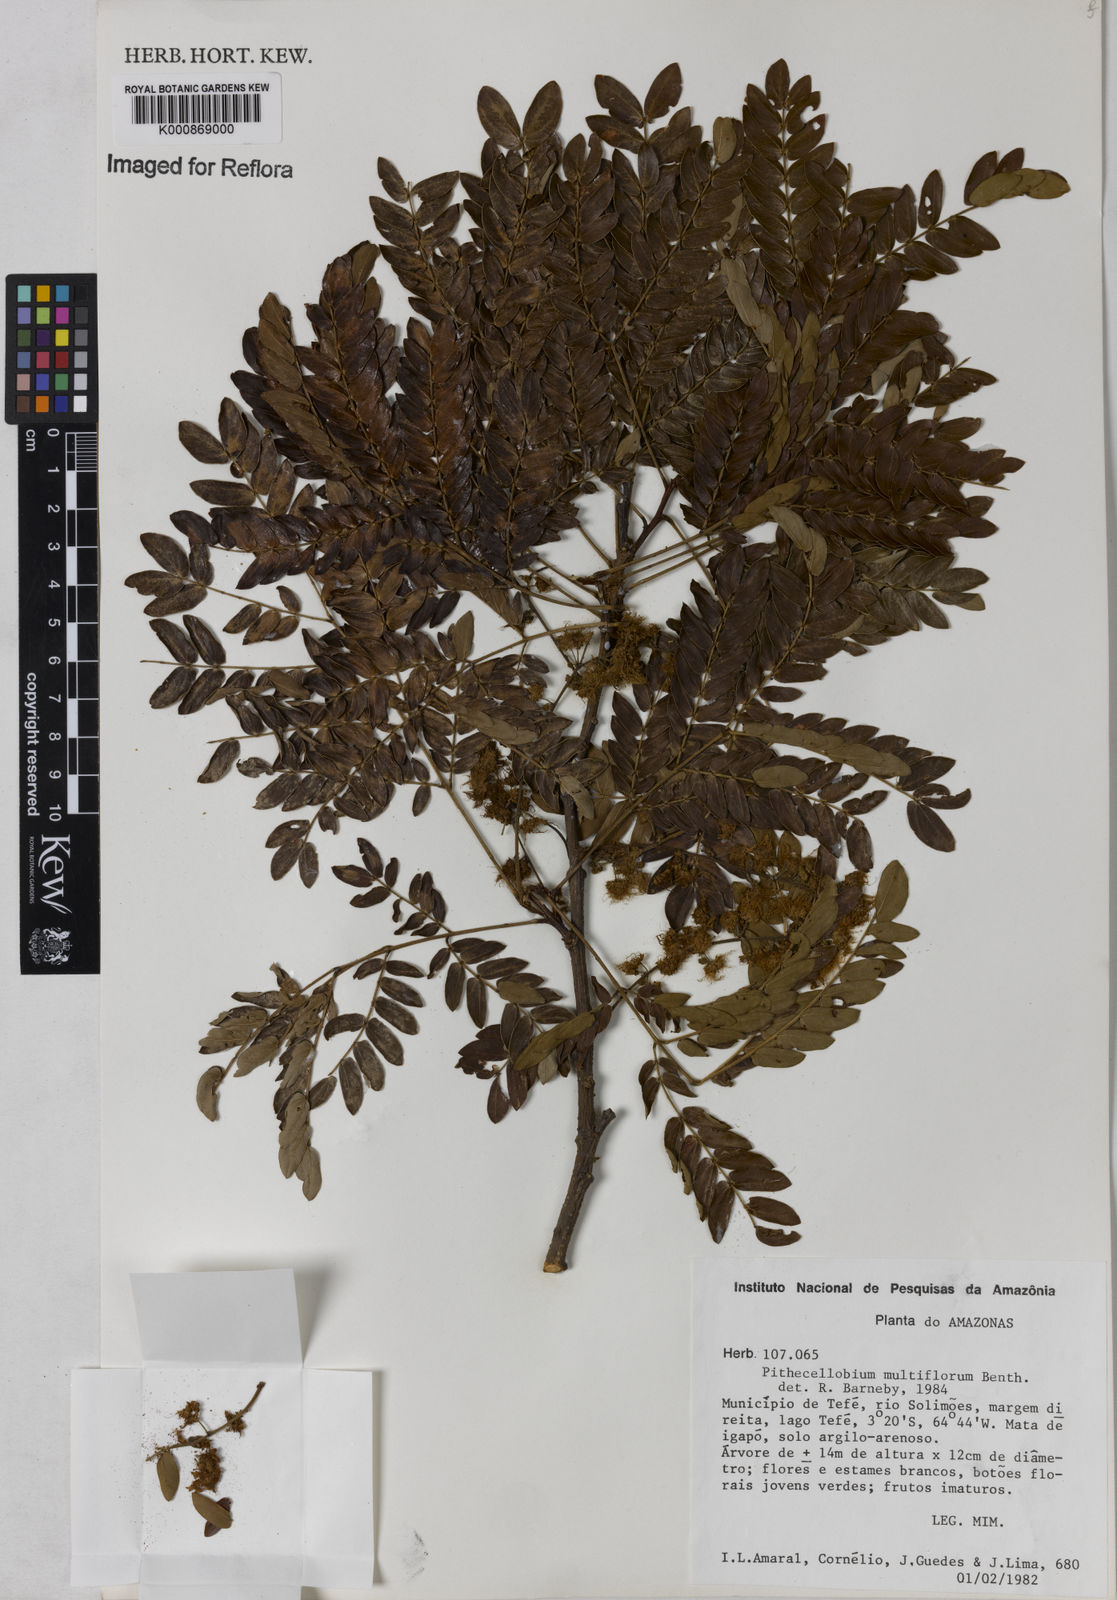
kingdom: Plantae
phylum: Tracheophyta
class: Magnoliopsida
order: Fabales
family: Fabaceae
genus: Albizia
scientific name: Albizia multiflora
